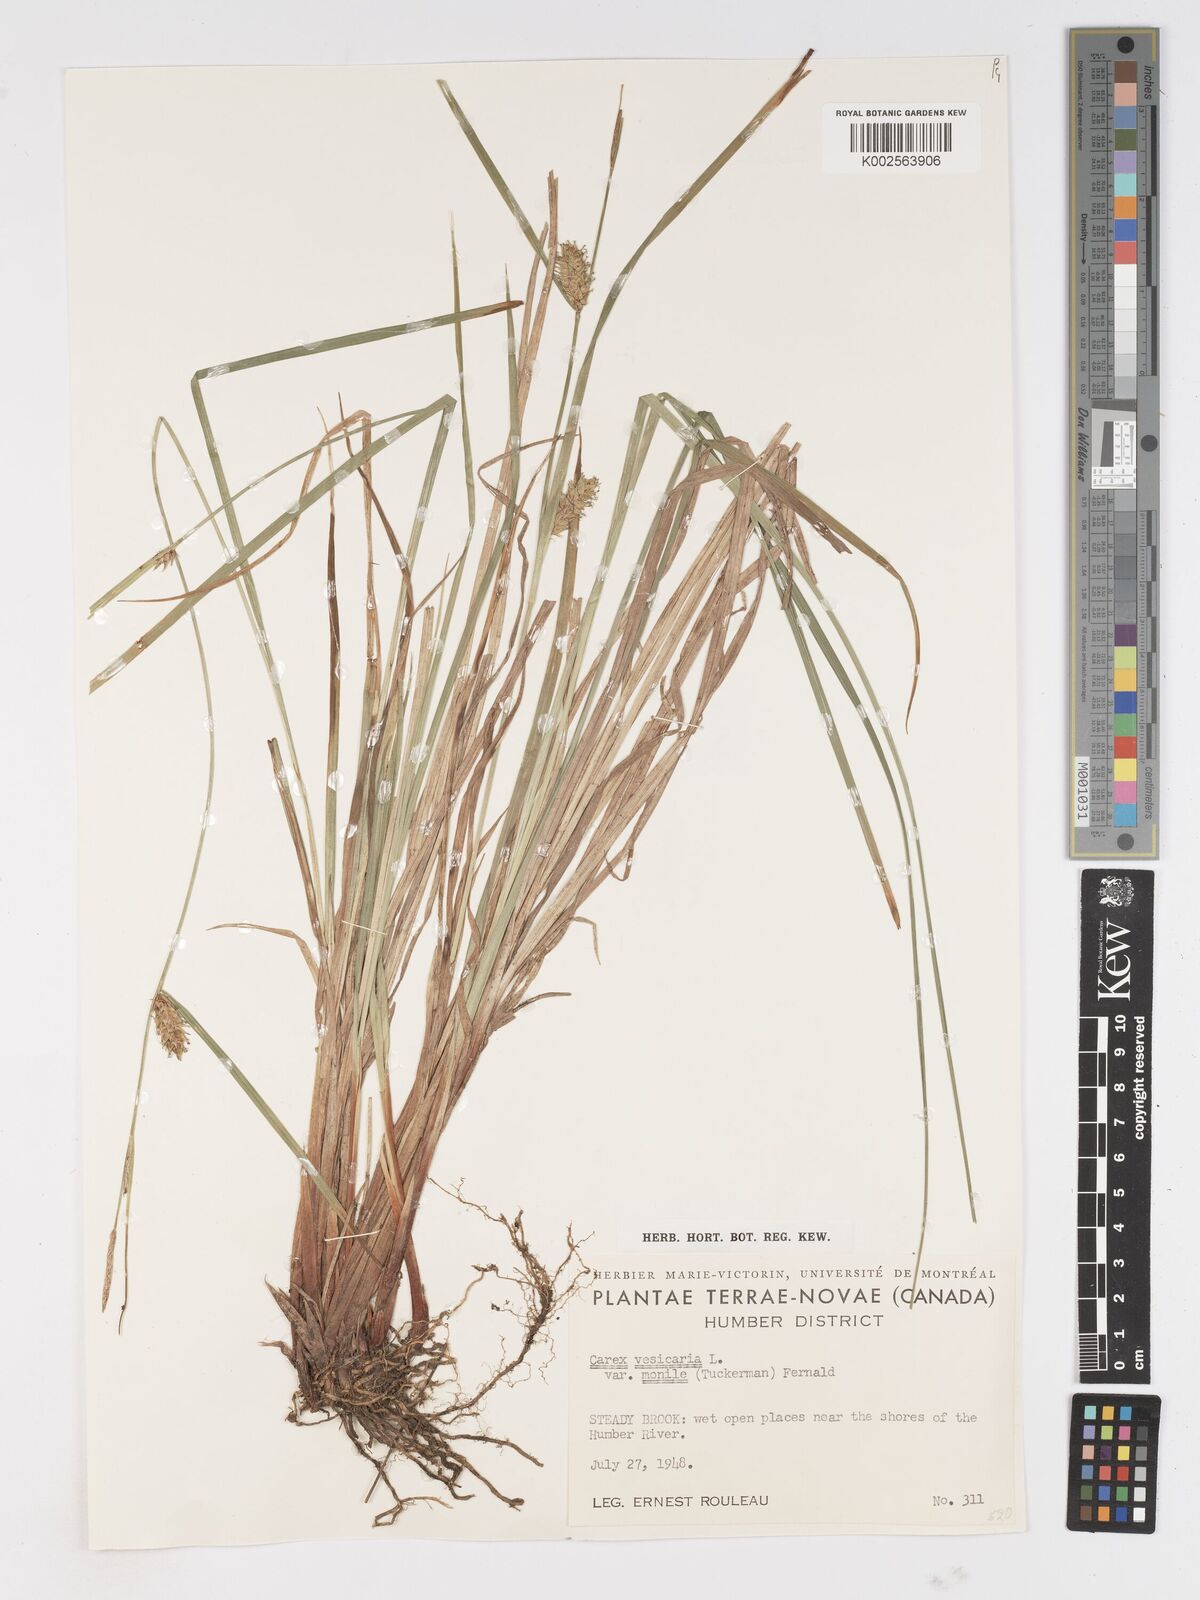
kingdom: Plantae
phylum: Tracheophyta
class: Liliopsida
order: Poales
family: Cyperaceae
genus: Carex
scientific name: Carex rostrata
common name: Bottle sedge
